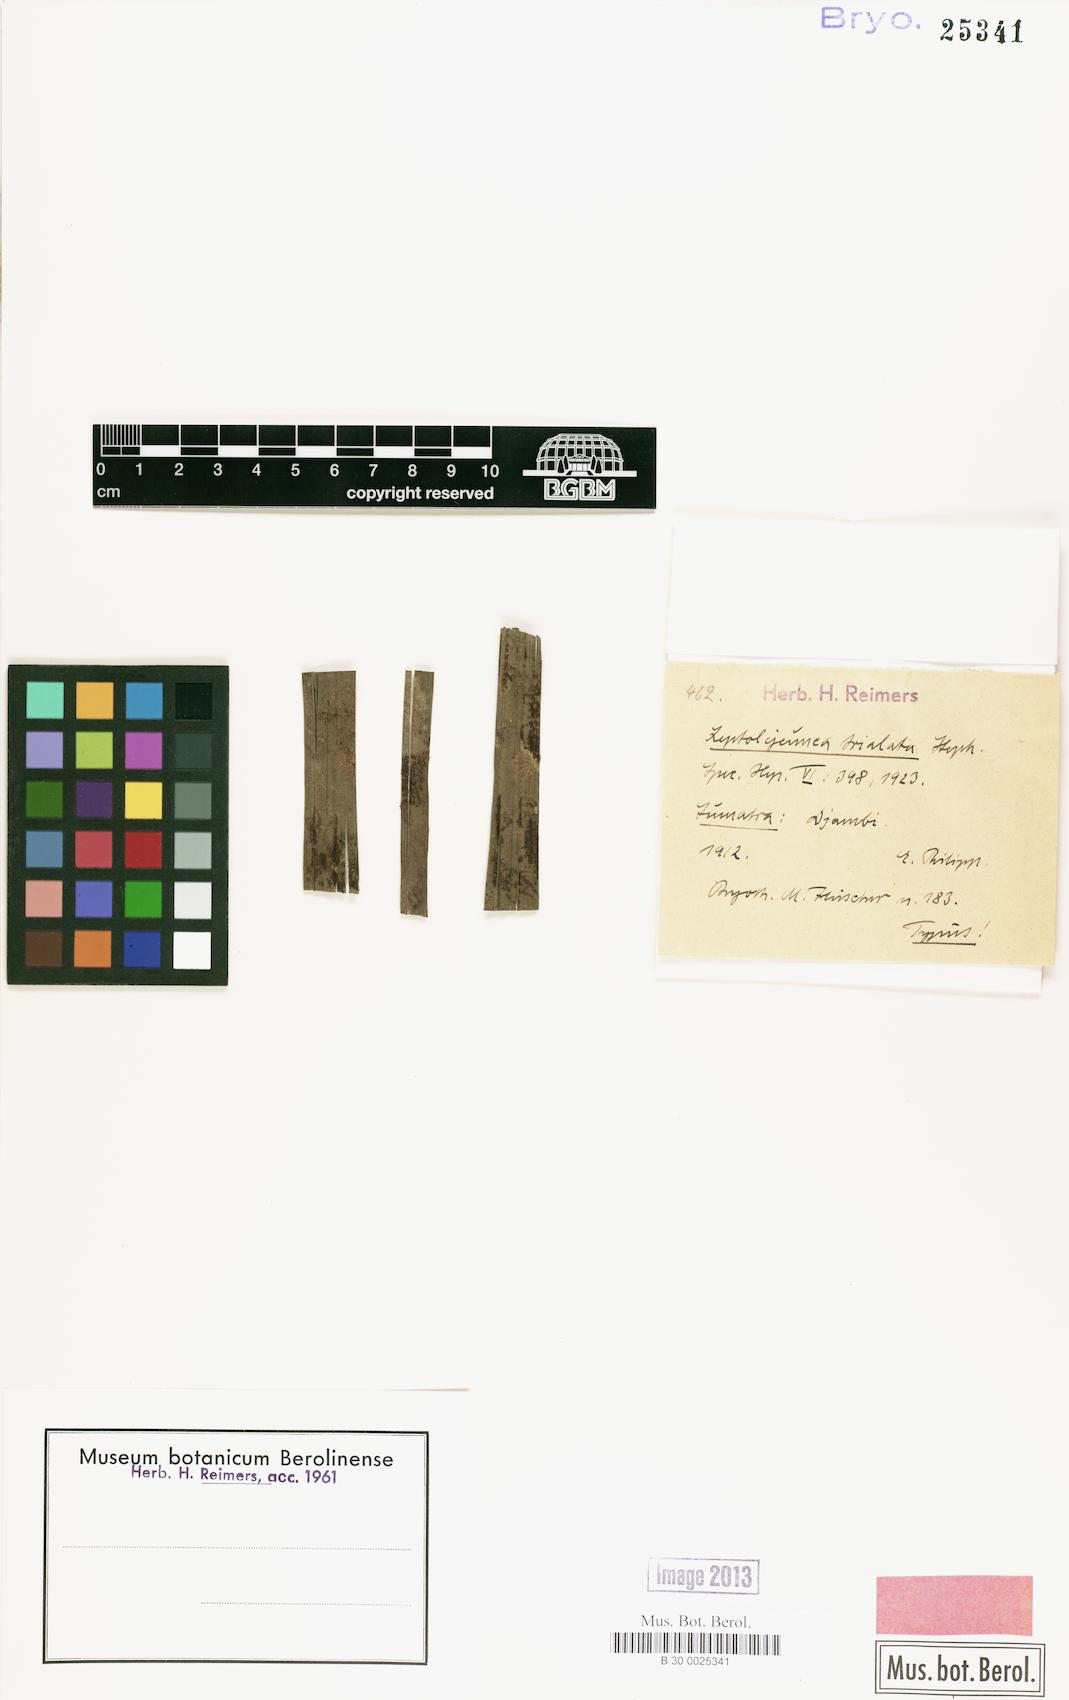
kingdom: Plantae
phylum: Marchantiophyta
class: Jungermanniopsida
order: Porellales
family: Lejeuneaceae
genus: Colura
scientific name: Colura corynophora
